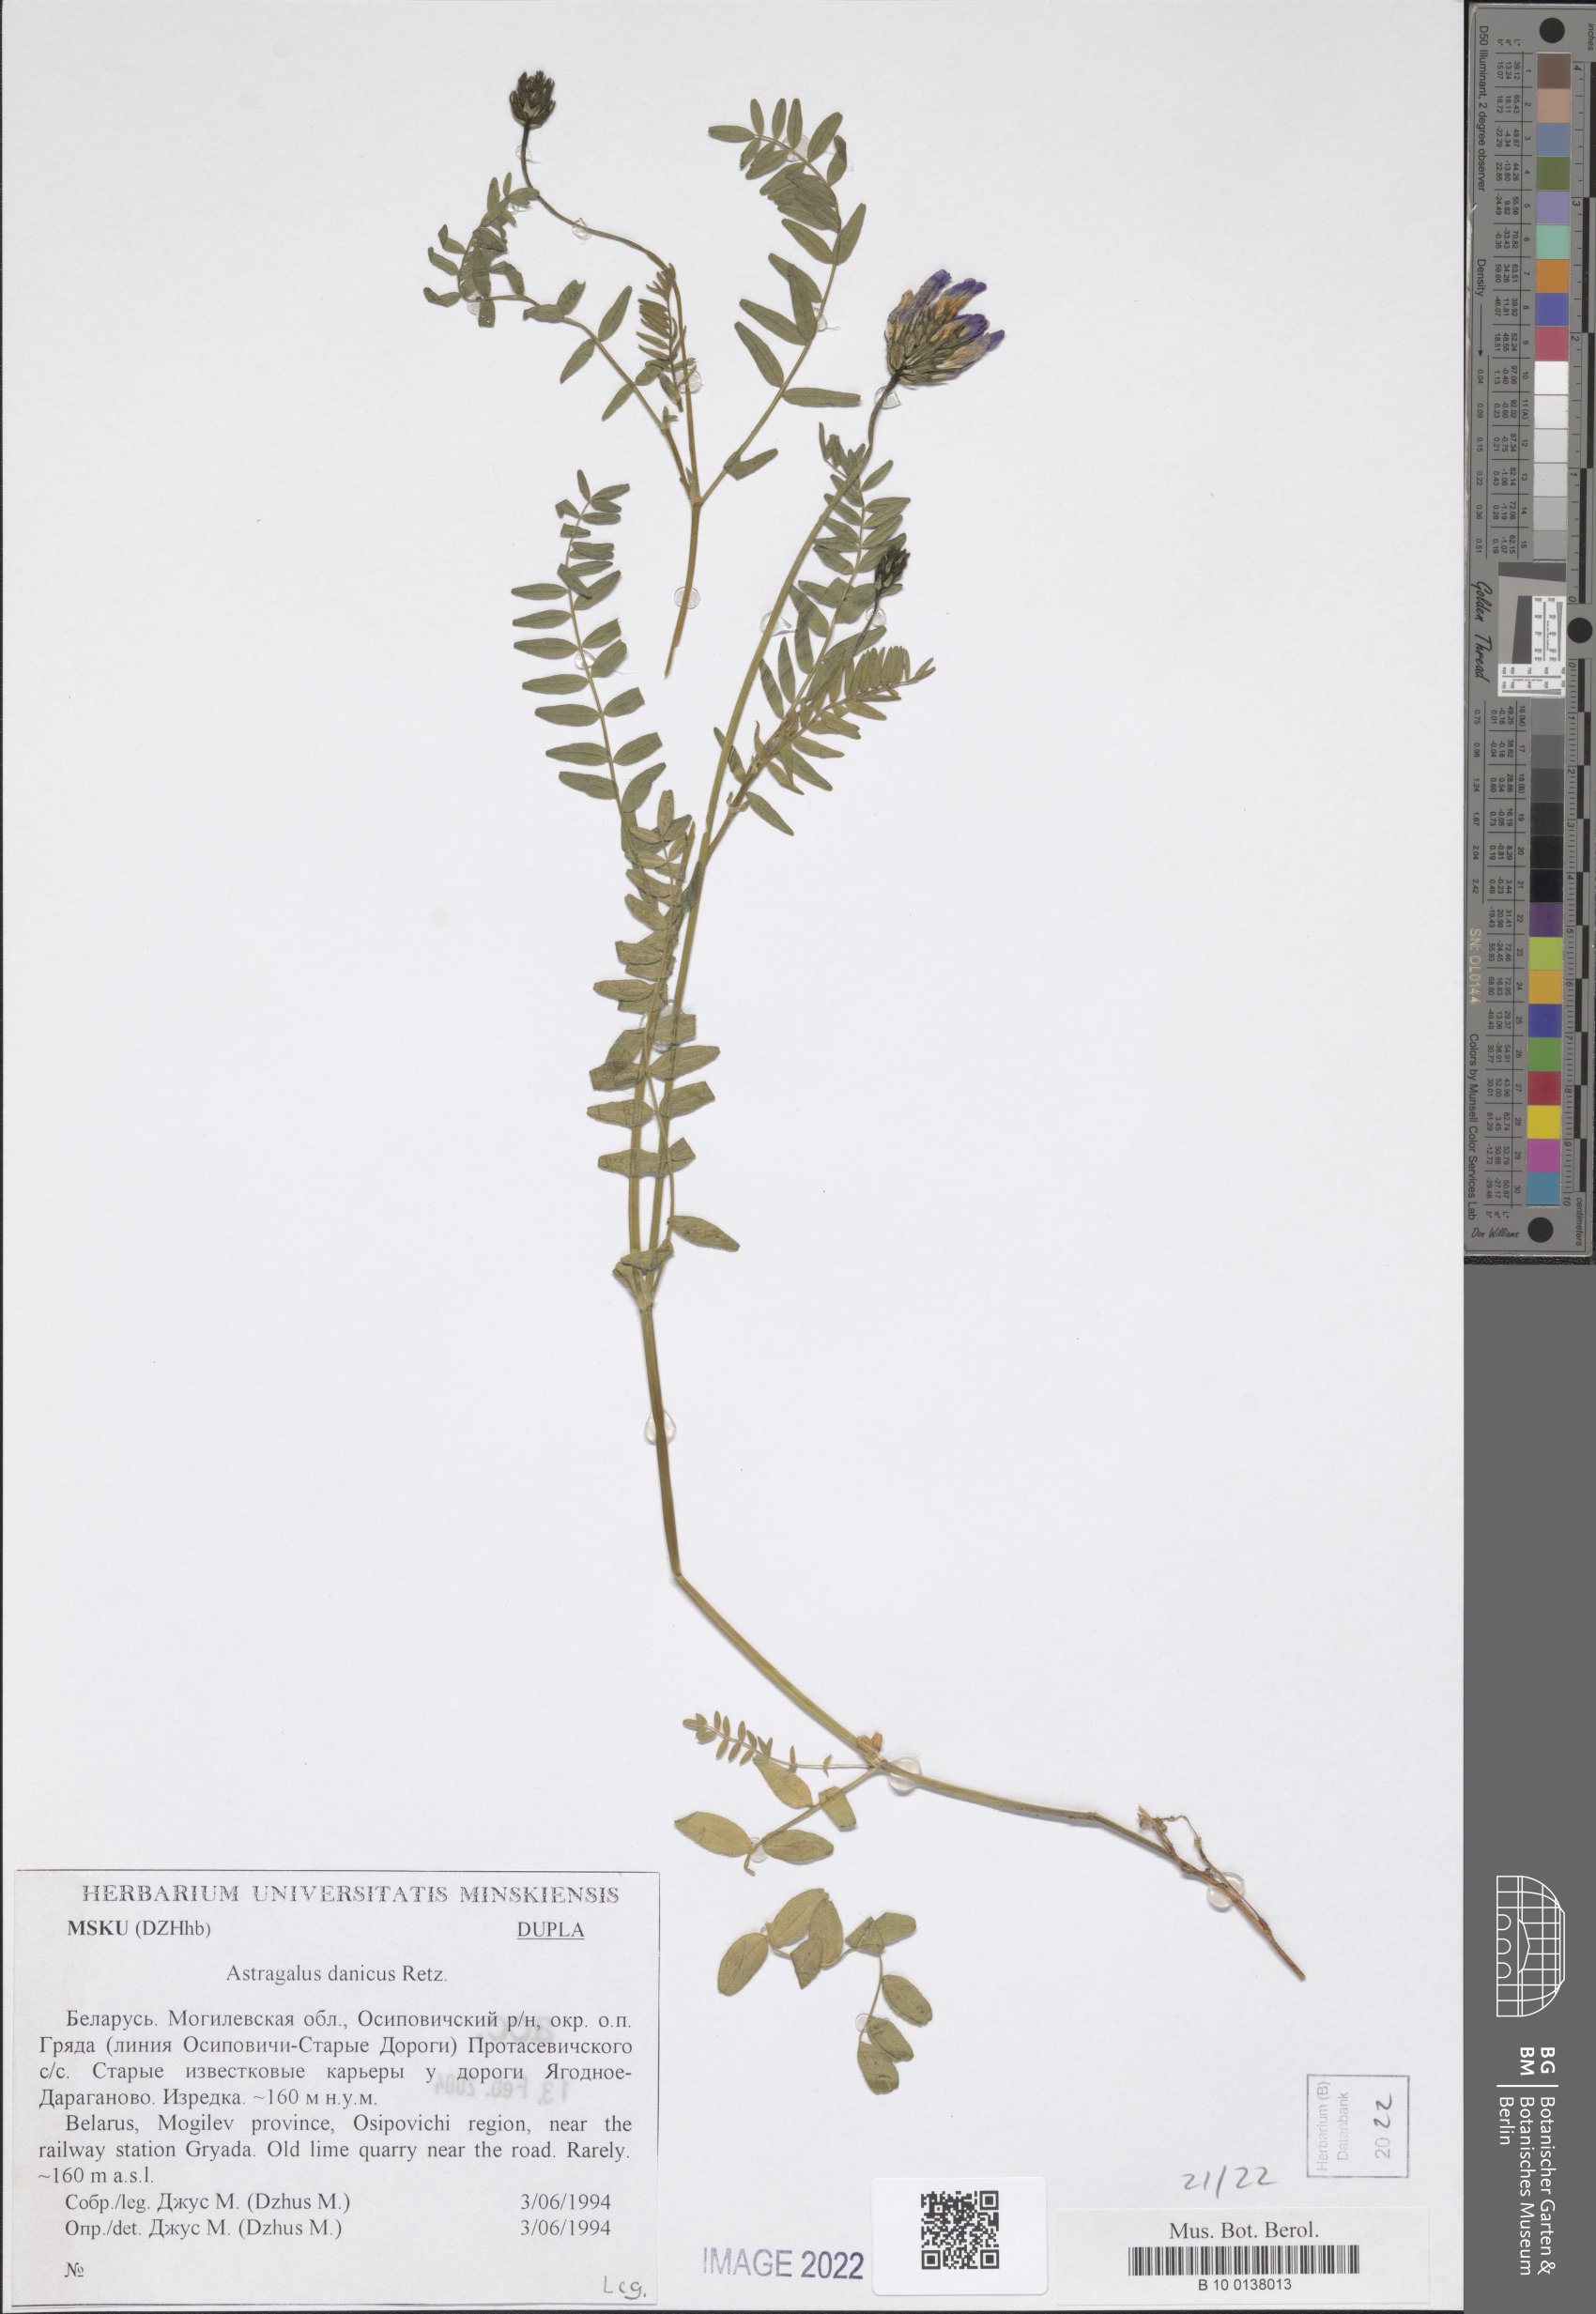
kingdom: Plantae
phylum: Tracheophyta
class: Magnoliopsida
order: Fabales
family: Fabaceae
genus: Astragalus
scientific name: Astragalus danicus
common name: Purple milk-vetch
